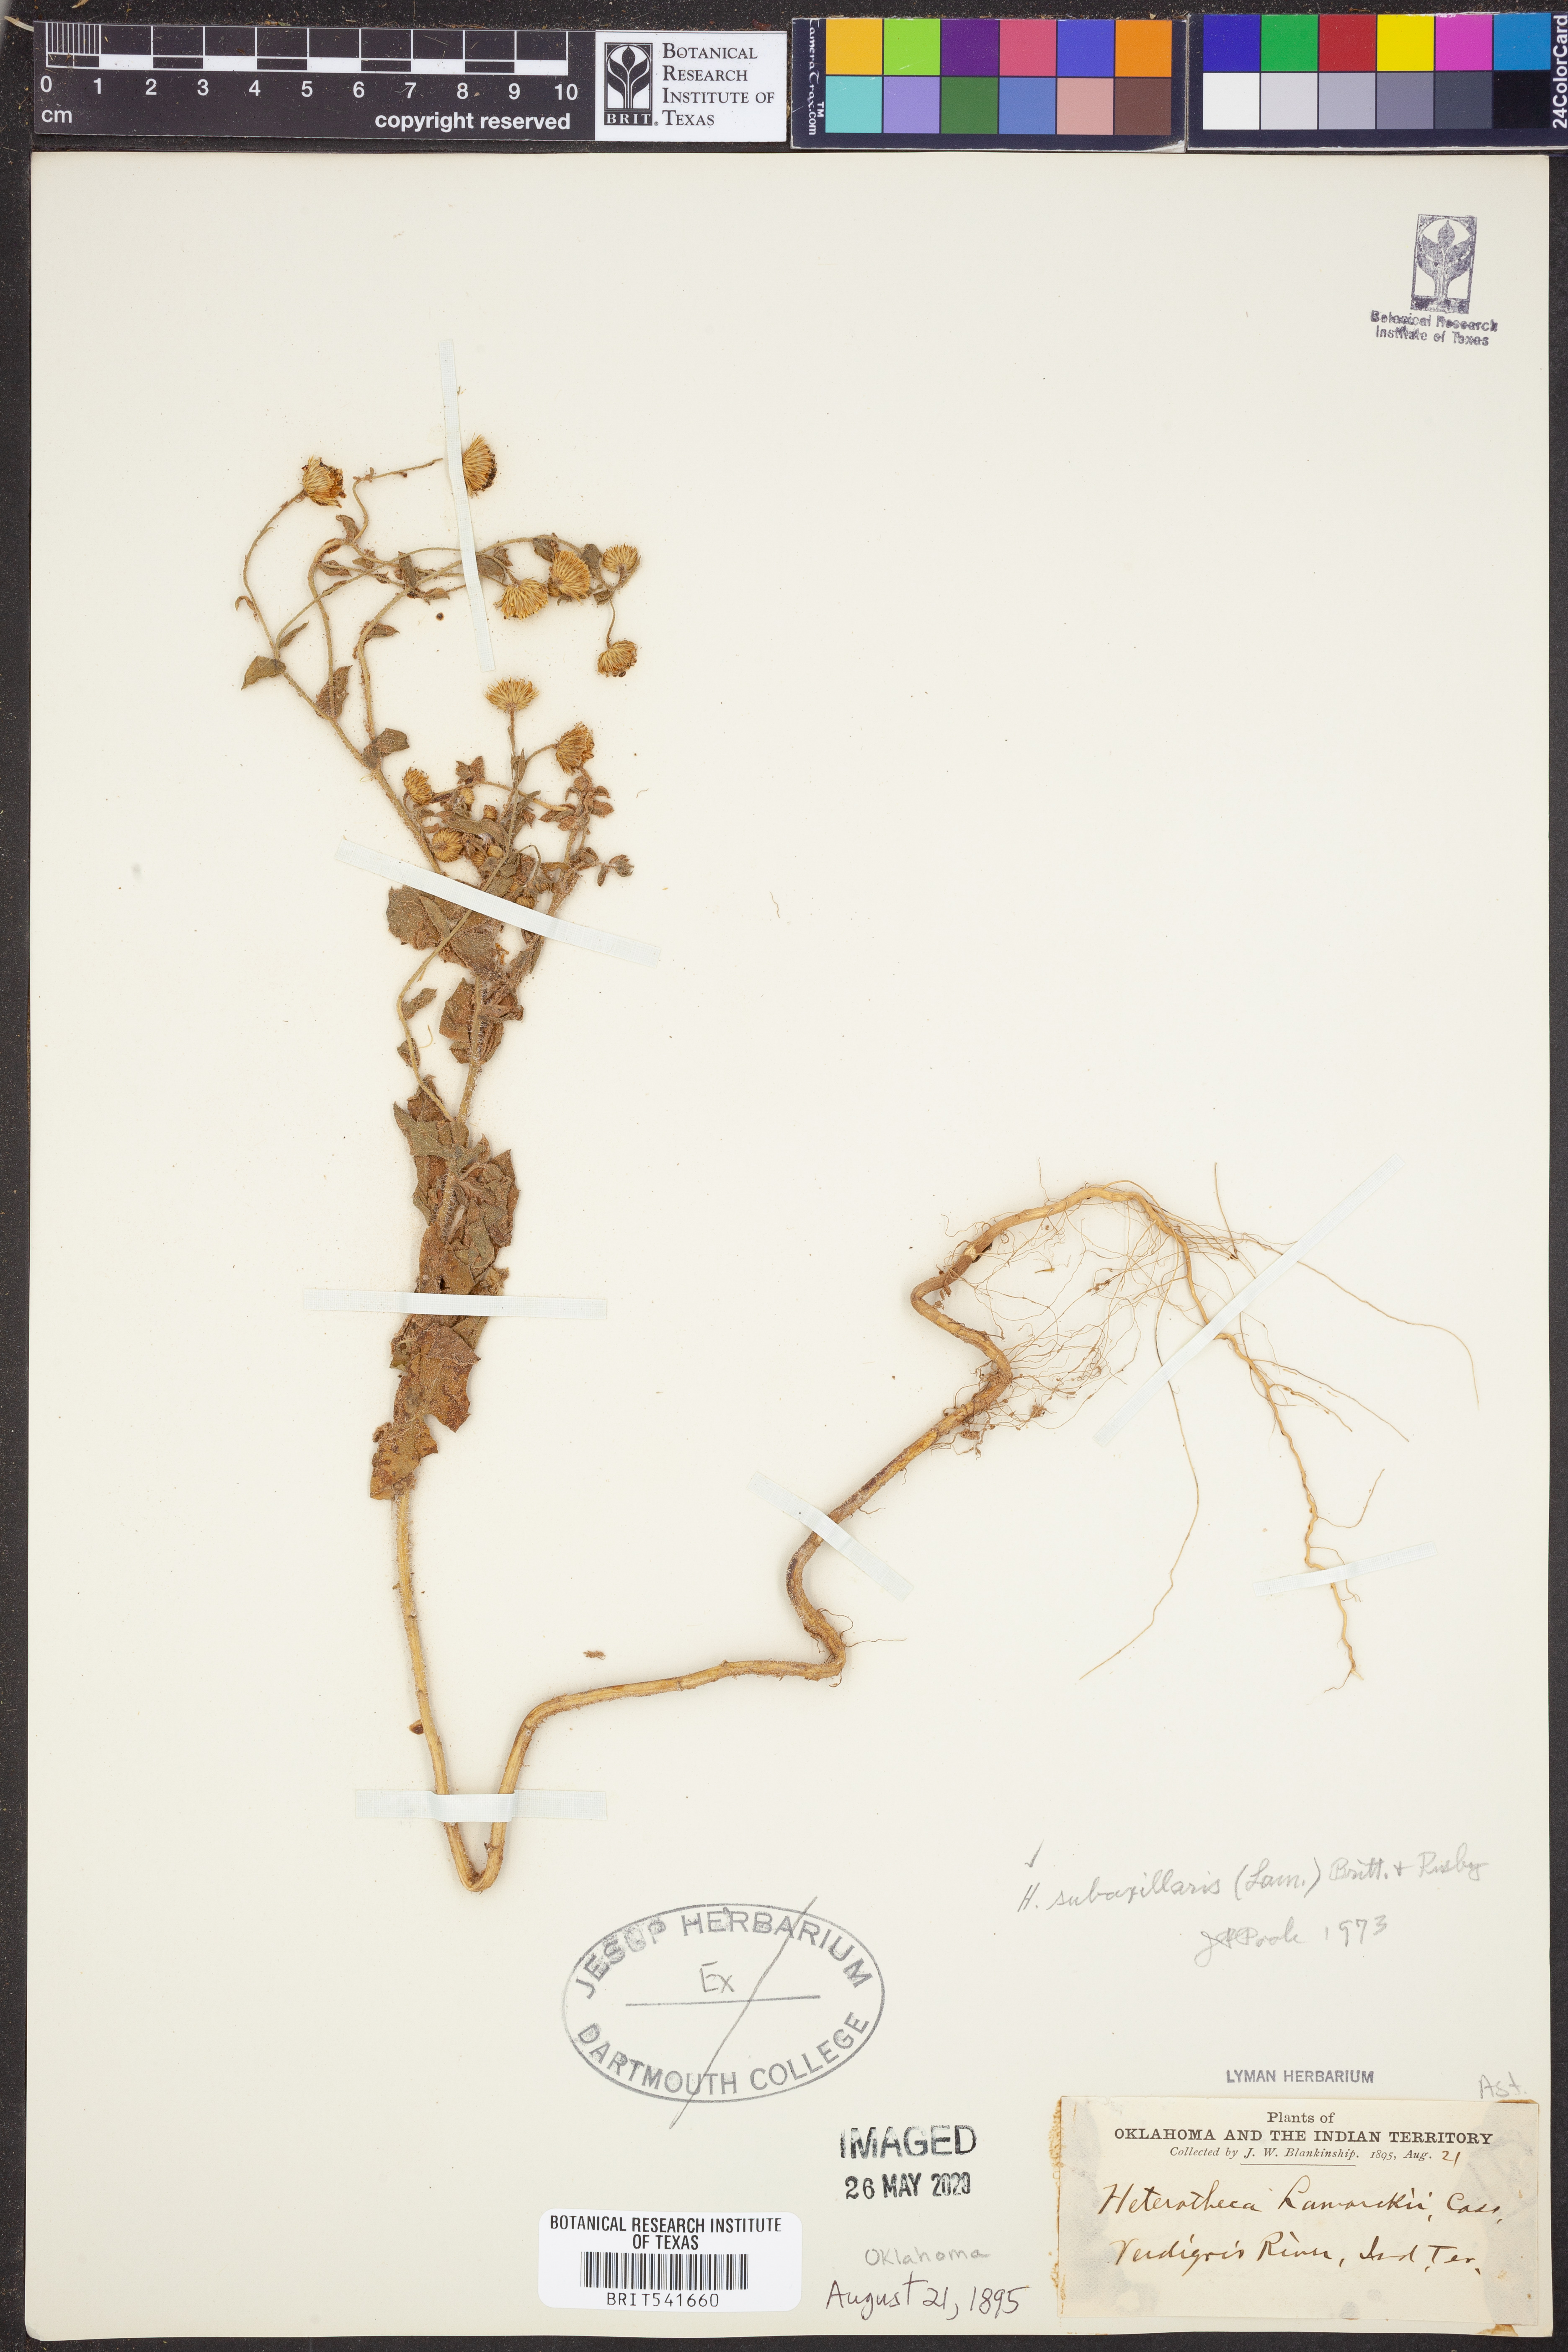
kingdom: Plantae
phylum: Tracheophyta
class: Magnoliopsida
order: Asterales
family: Asteraceae
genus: Heterotheca
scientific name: Heterotheca subaxillaris
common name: Camphorweed
